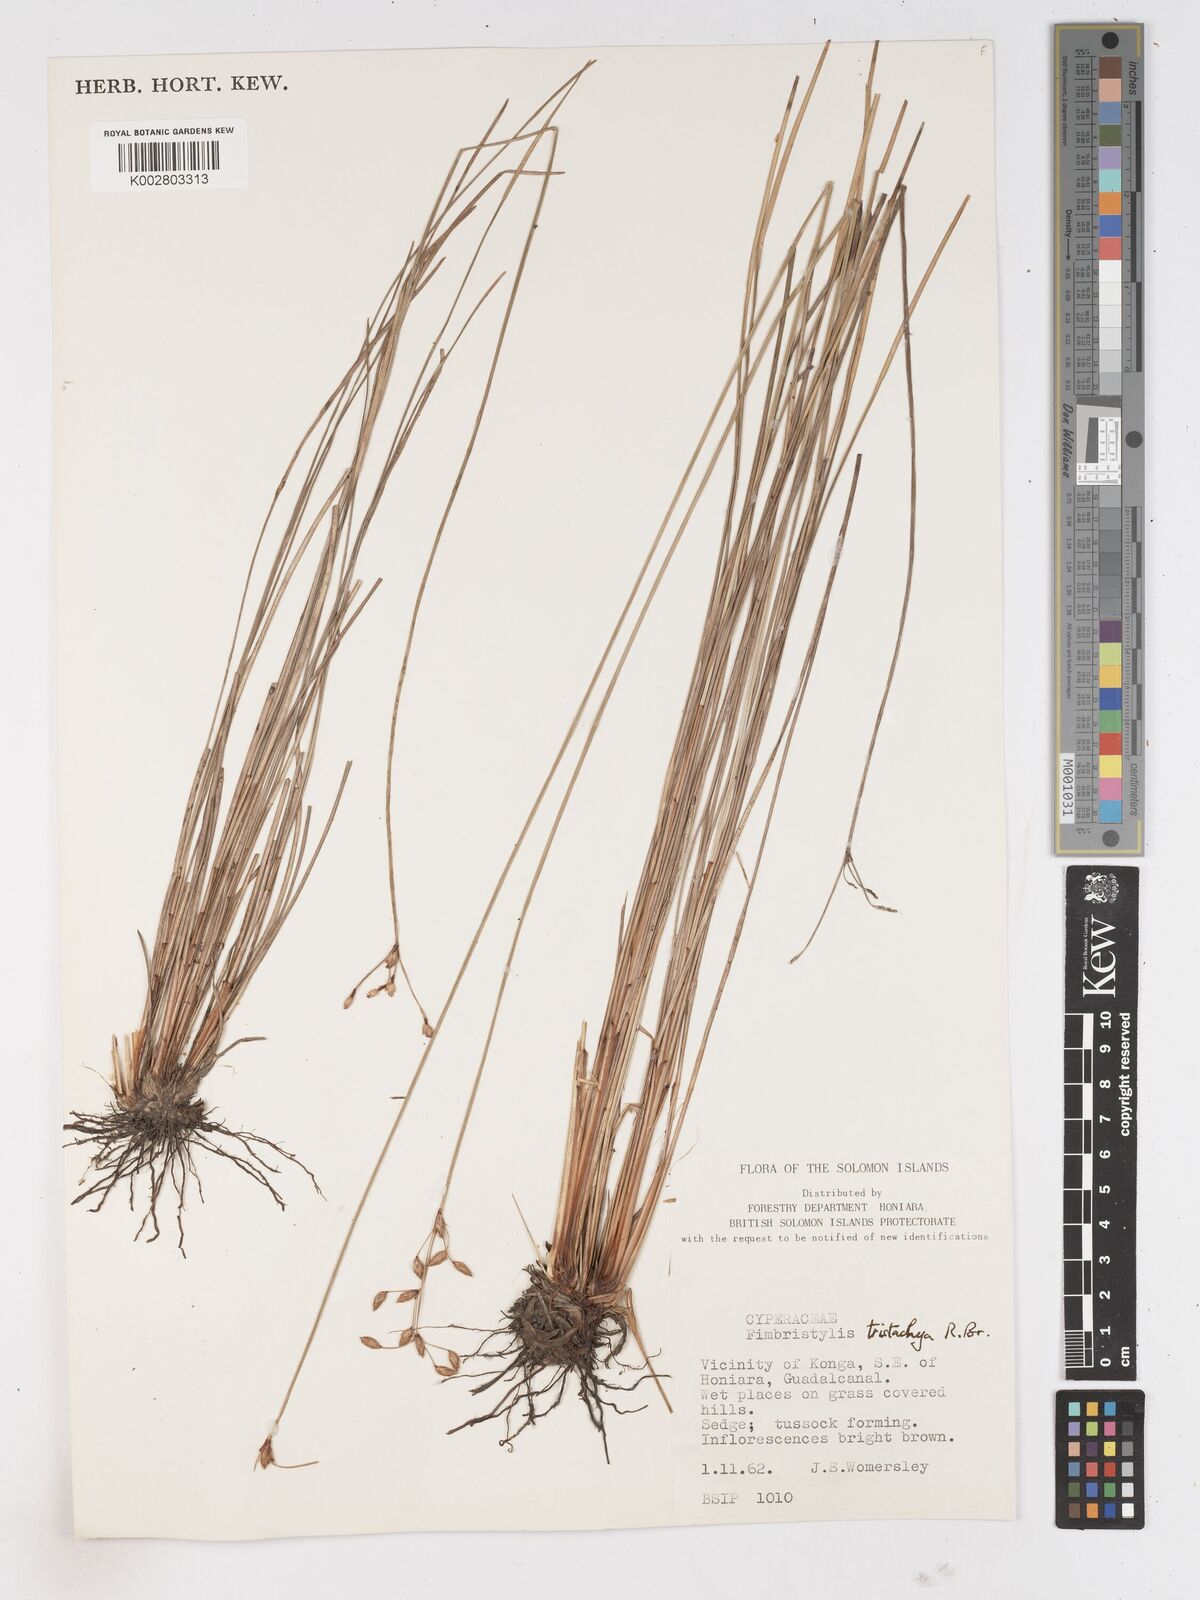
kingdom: Plantae
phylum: Tracheophyta
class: Liliopsida
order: Poales
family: Cyperaceae
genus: Fimbristylis
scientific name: Fimbristylis tristachya
